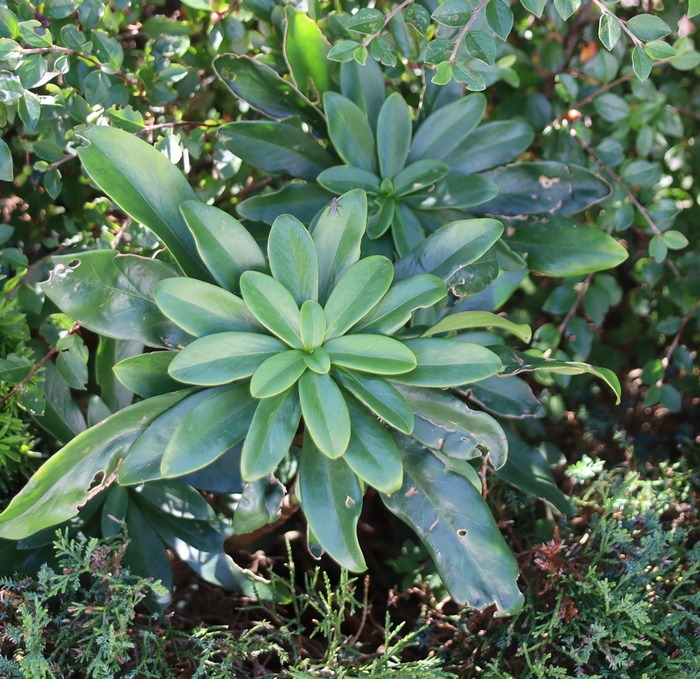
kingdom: Plantae
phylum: Tracheophyta
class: Magnoliopsida
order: Malvales
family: Thymelaeaceae
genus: Daphne
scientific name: Daphne laureola
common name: Laurbær-dafne
